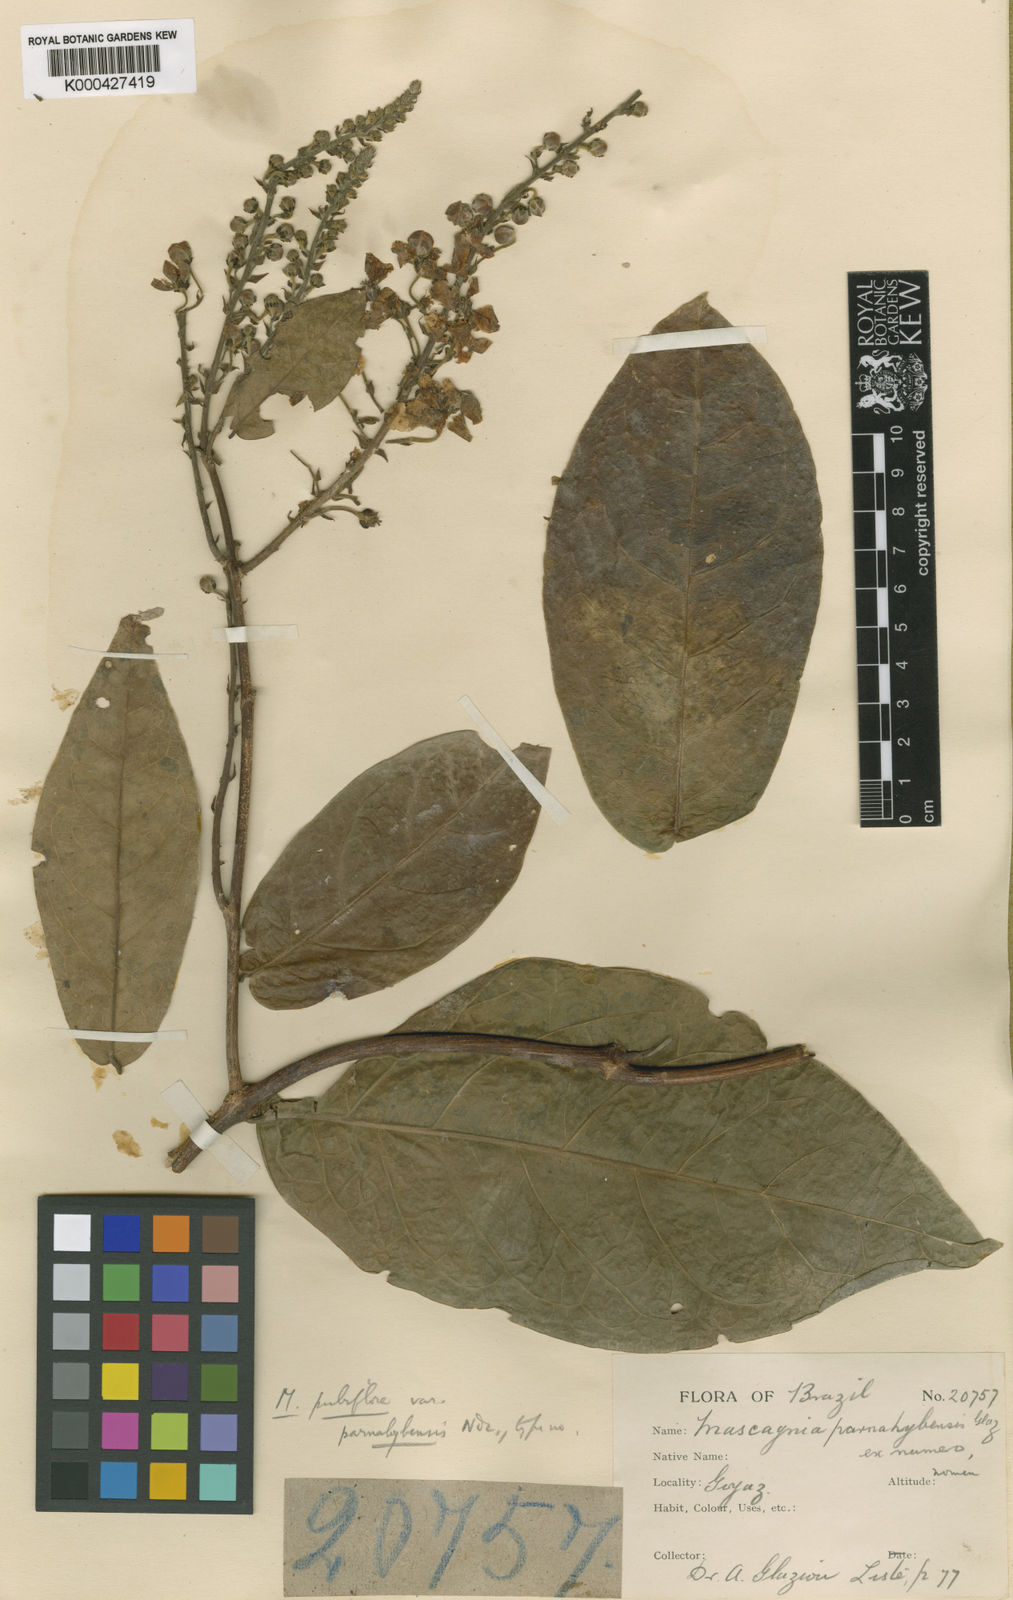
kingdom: Plantae
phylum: Tracheophyta
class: Magnoliopsida
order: Malpighiales
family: Malpighiaceae
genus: Amorimia
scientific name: Amorimia pubiflora
